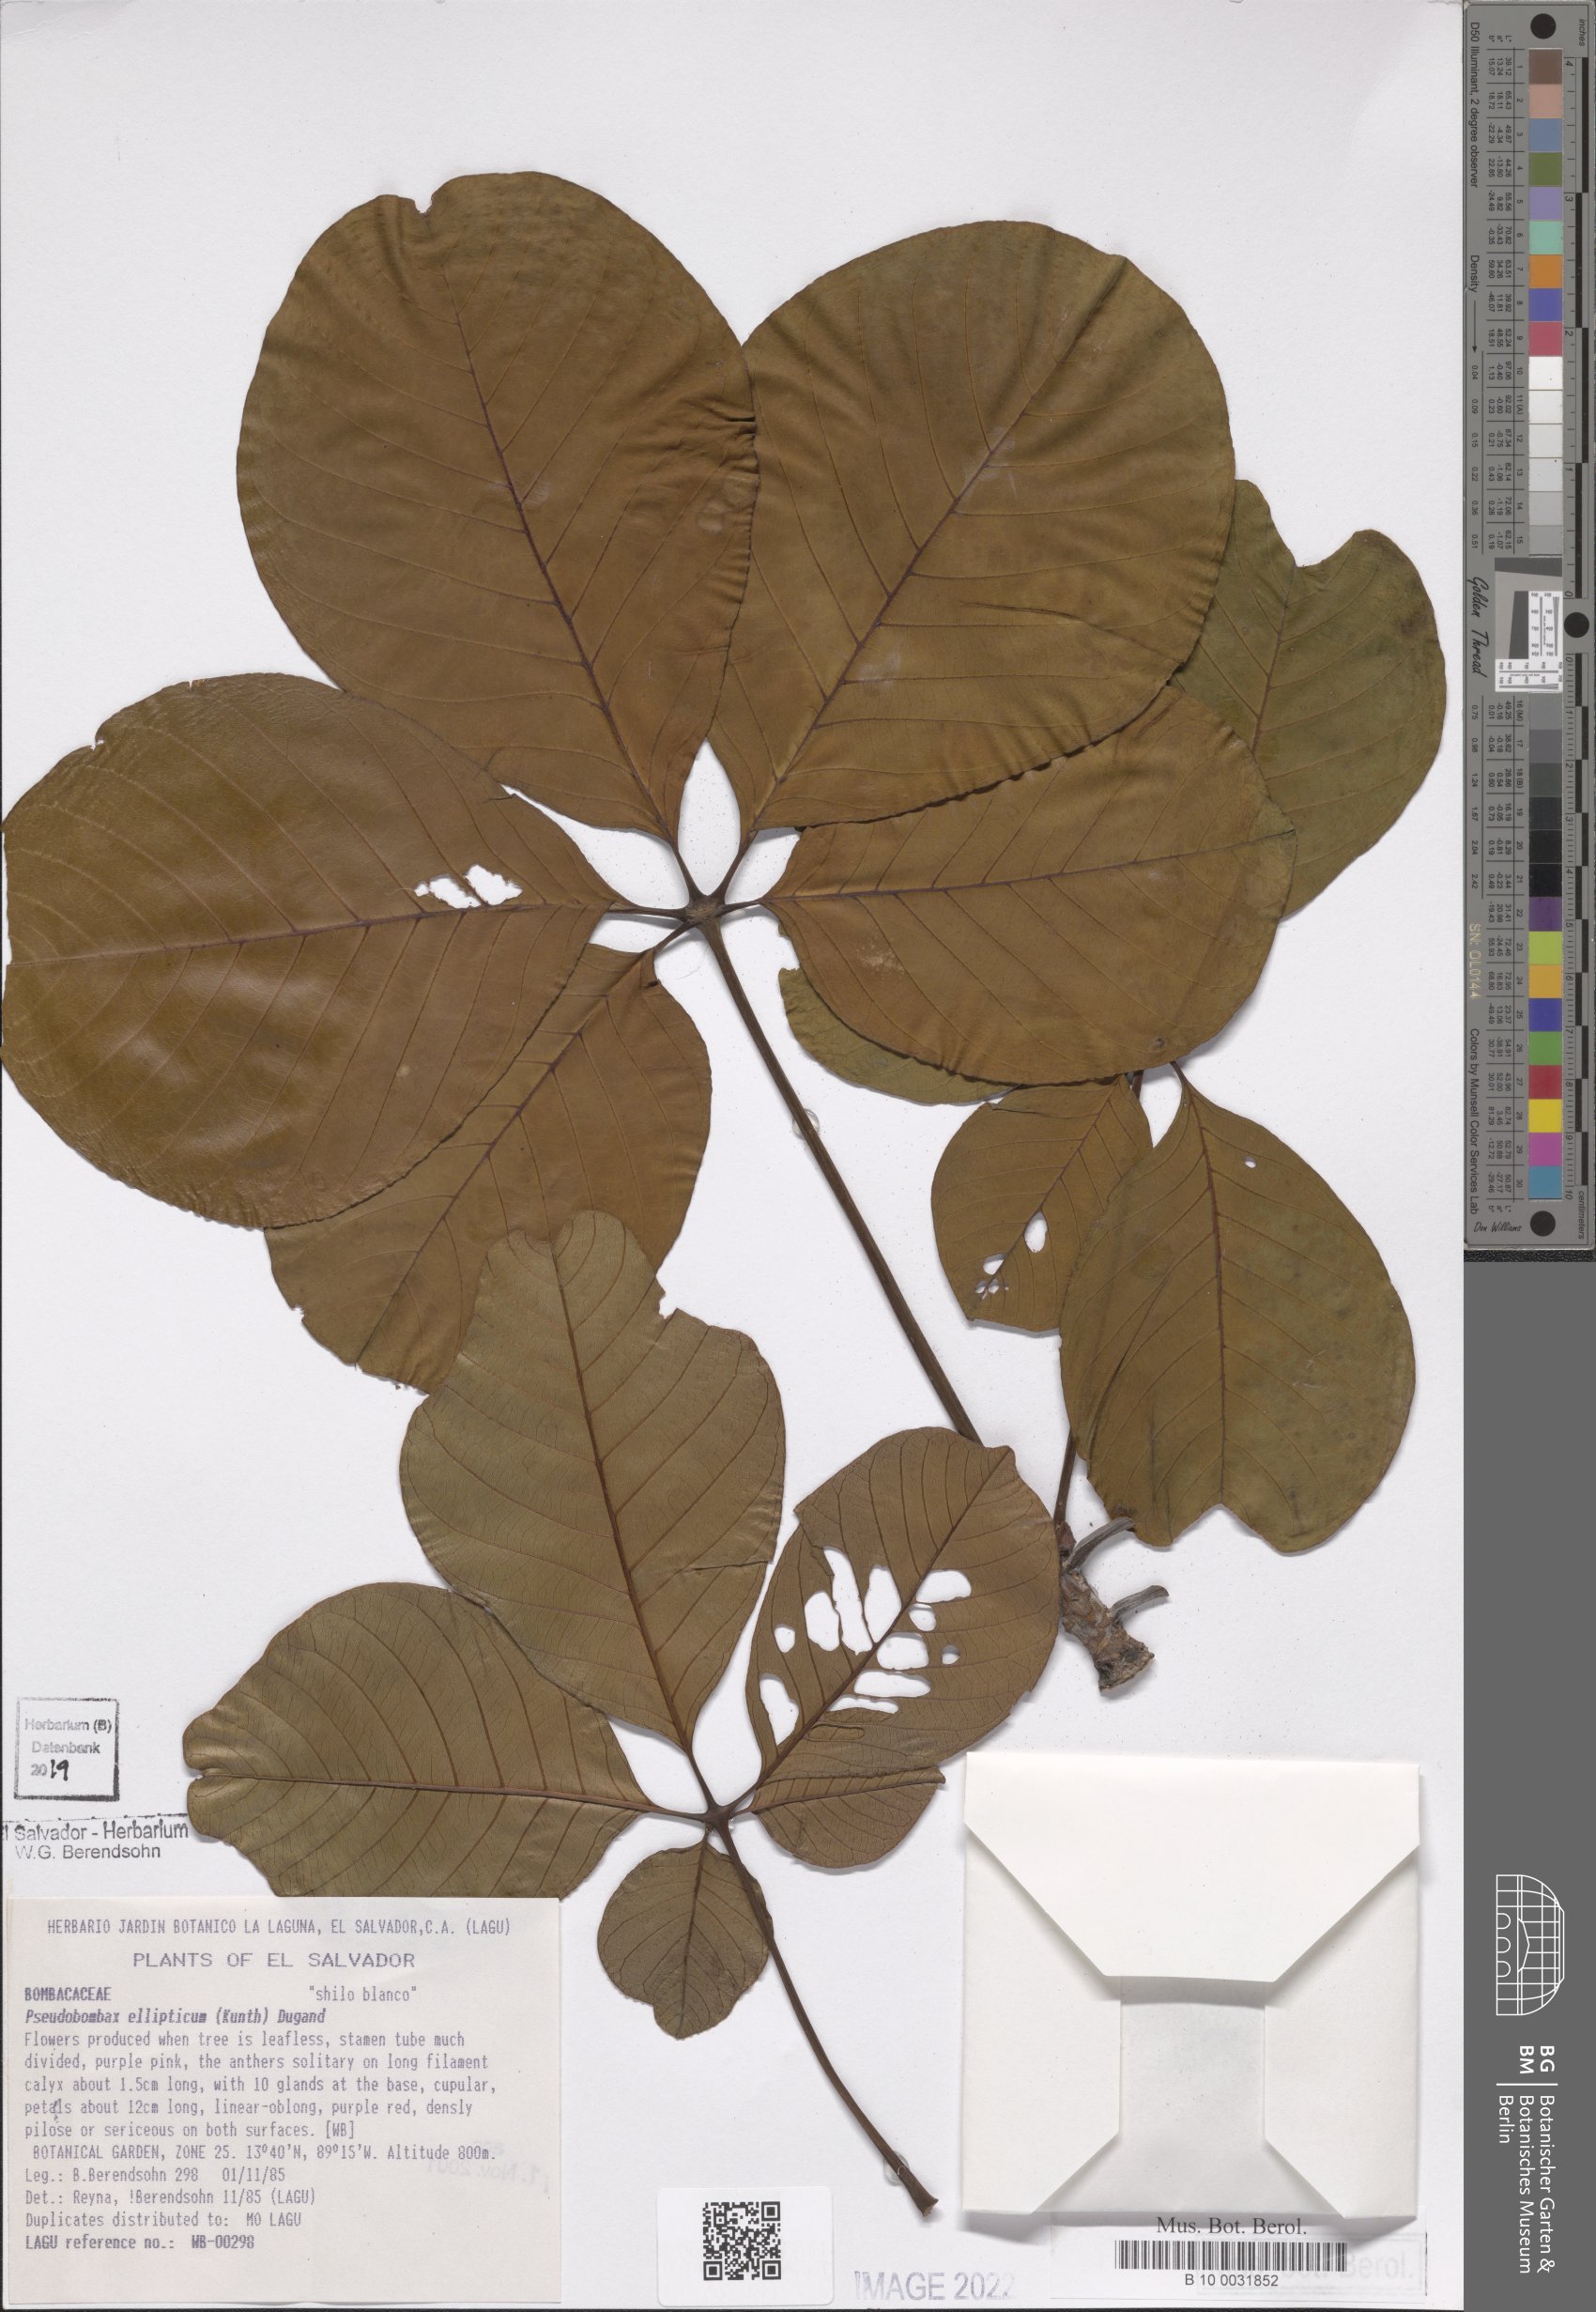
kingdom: Plantae
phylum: Tracheophyta
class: Magnoliopsida
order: Malvales
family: Malvaceae
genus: Pseudobombax
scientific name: Pseudobombax ellipticum
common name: Shaving-brush-tree
